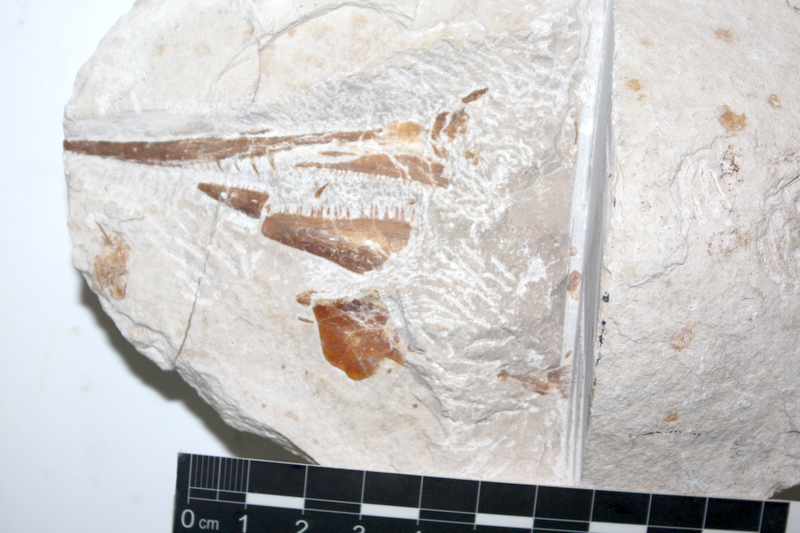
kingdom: Animalia
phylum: Chordata
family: Aspidorhynchidae
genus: Aspidorhynchus
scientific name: Aspidorhynchus
